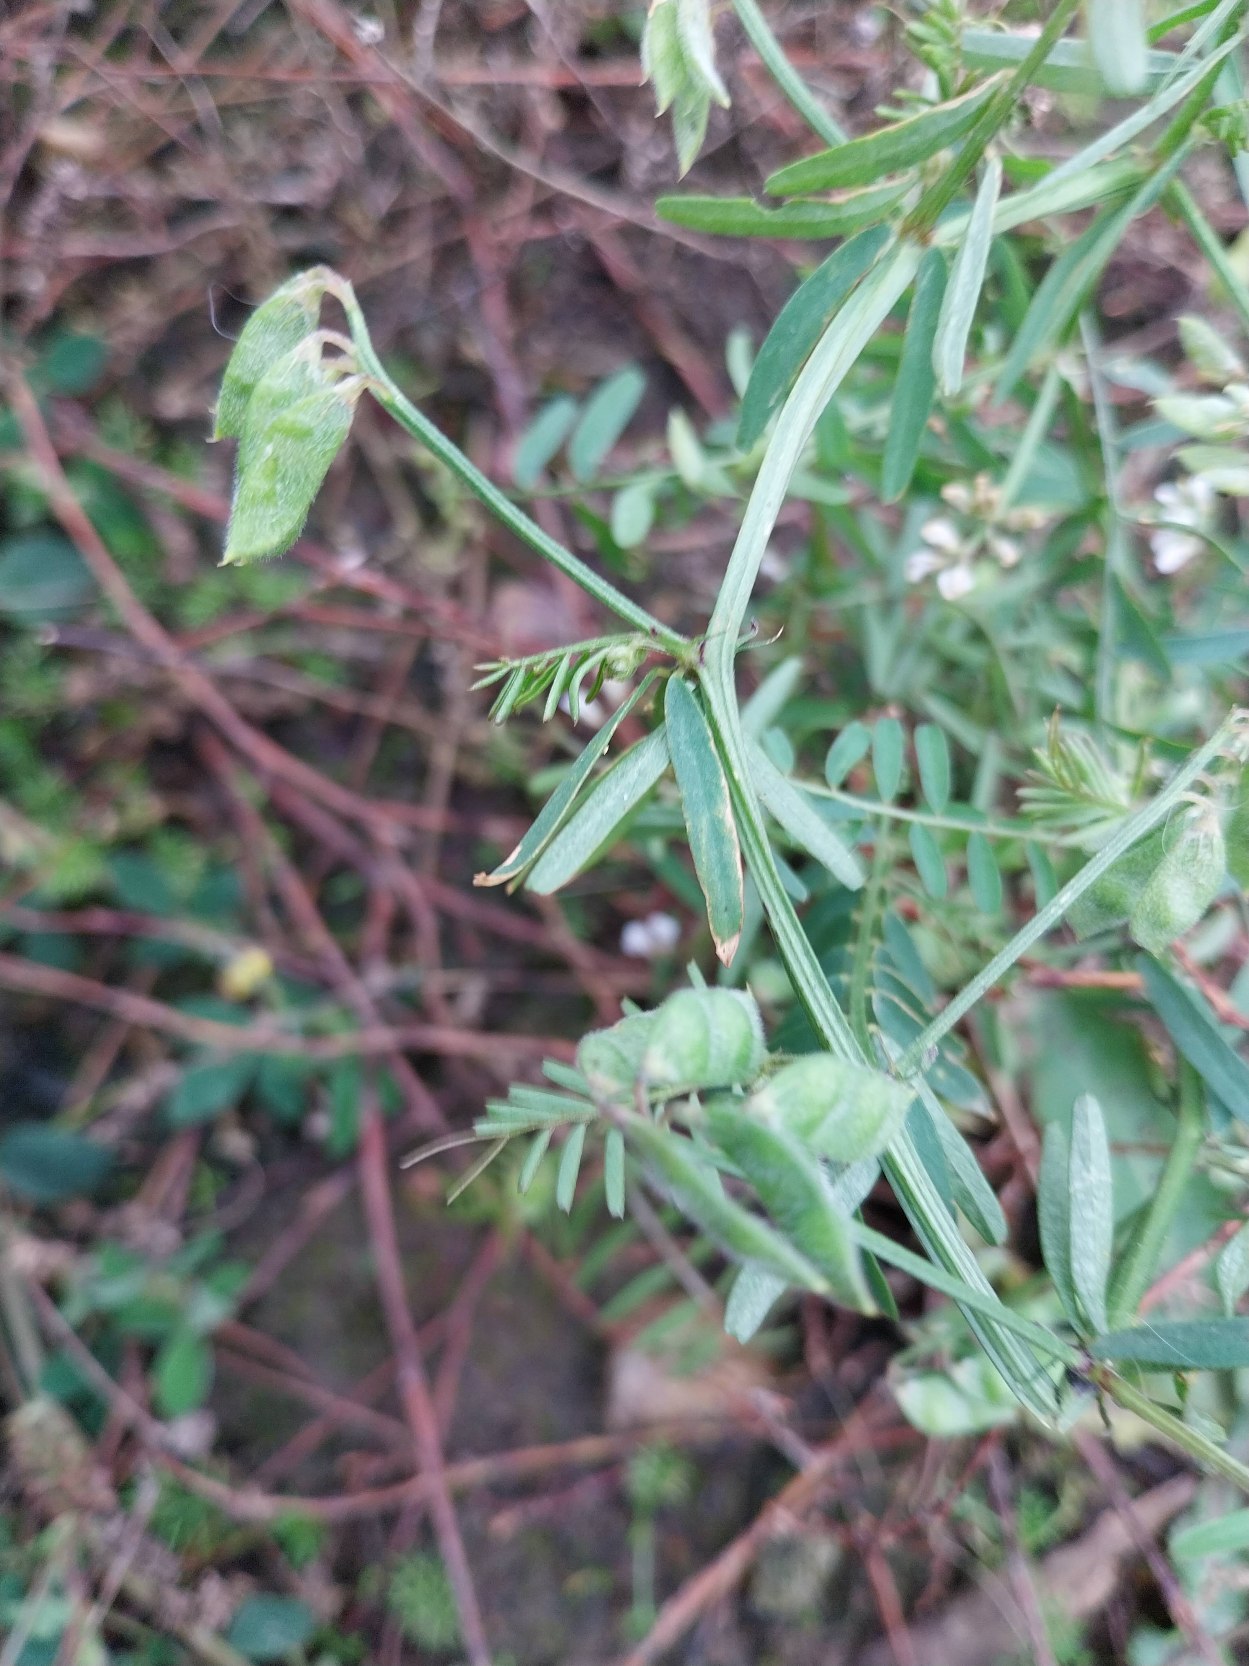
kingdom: Plantae
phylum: Tracheophyta
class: Magnoliopsida
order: Fabales
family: Fabaceae
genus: Vicia
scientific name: Vicia hirsuta
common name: Tofrøet vikke
